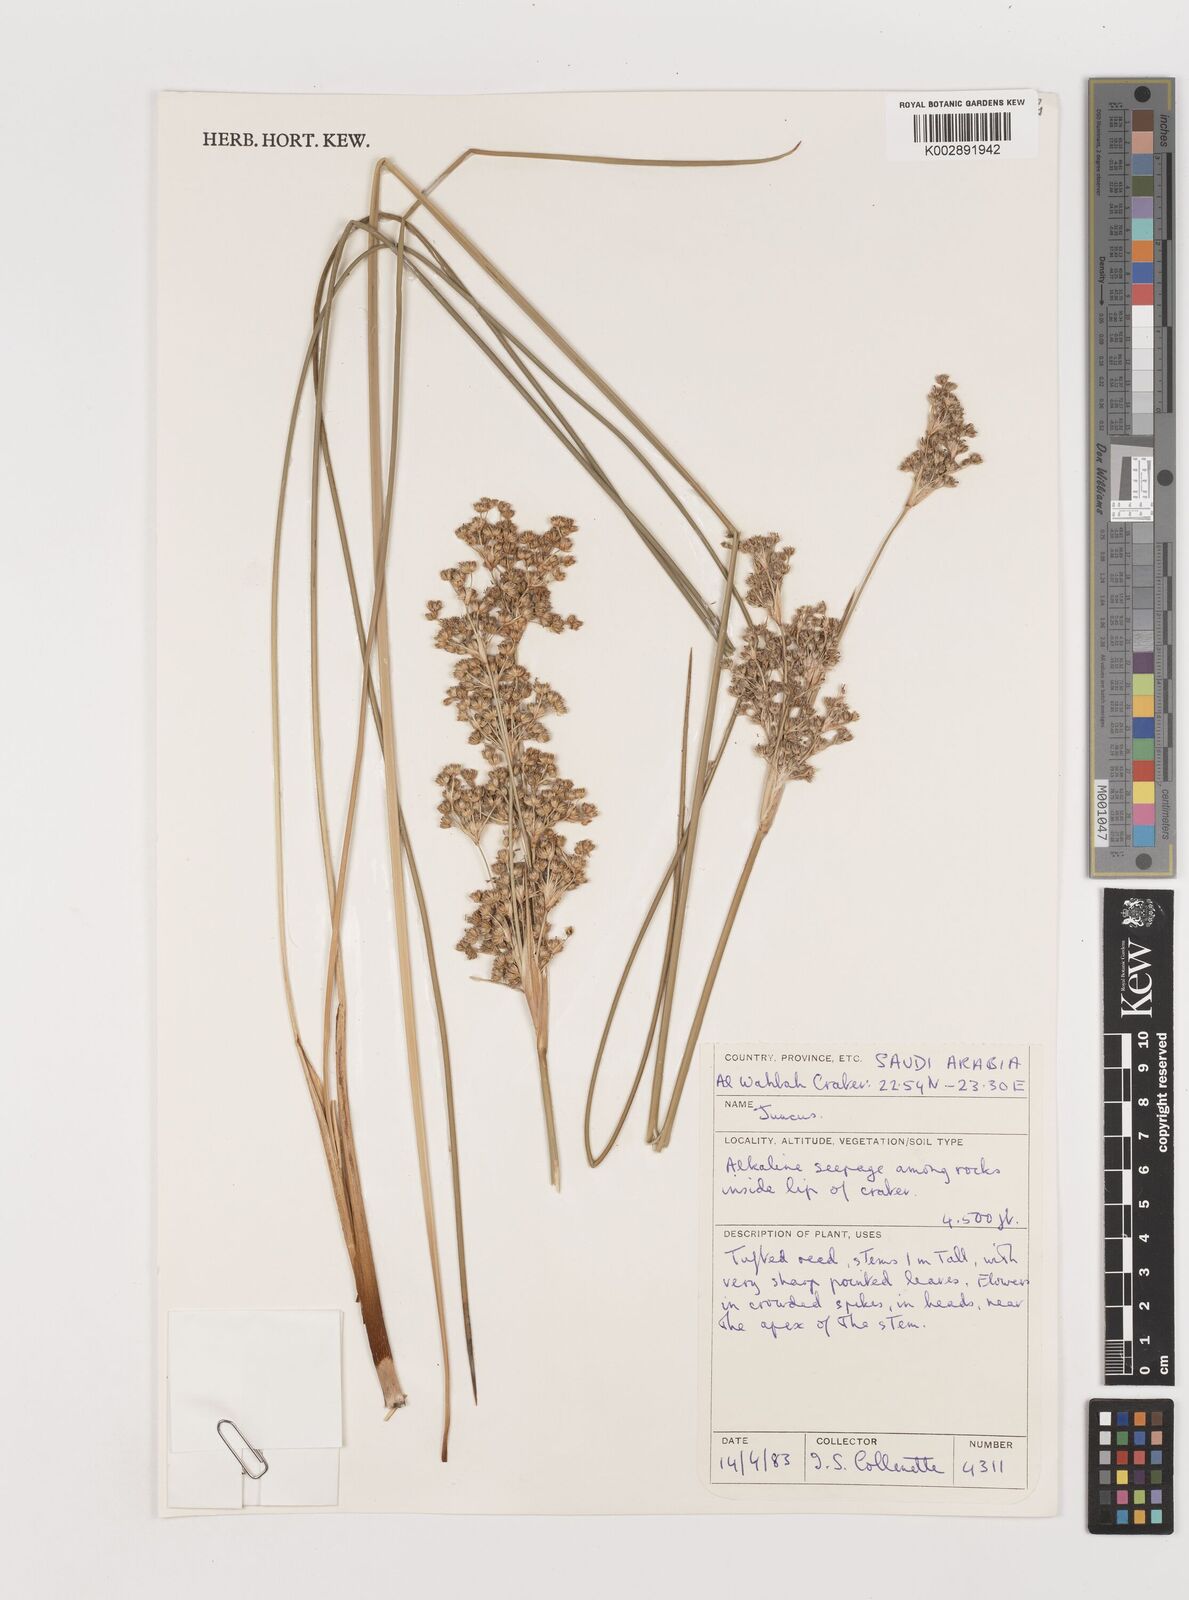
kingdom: Plantae
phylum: Tracheophyta
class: Liliopsida
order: Poales
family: Juncaceae
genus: Juncus
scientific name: Juncus
